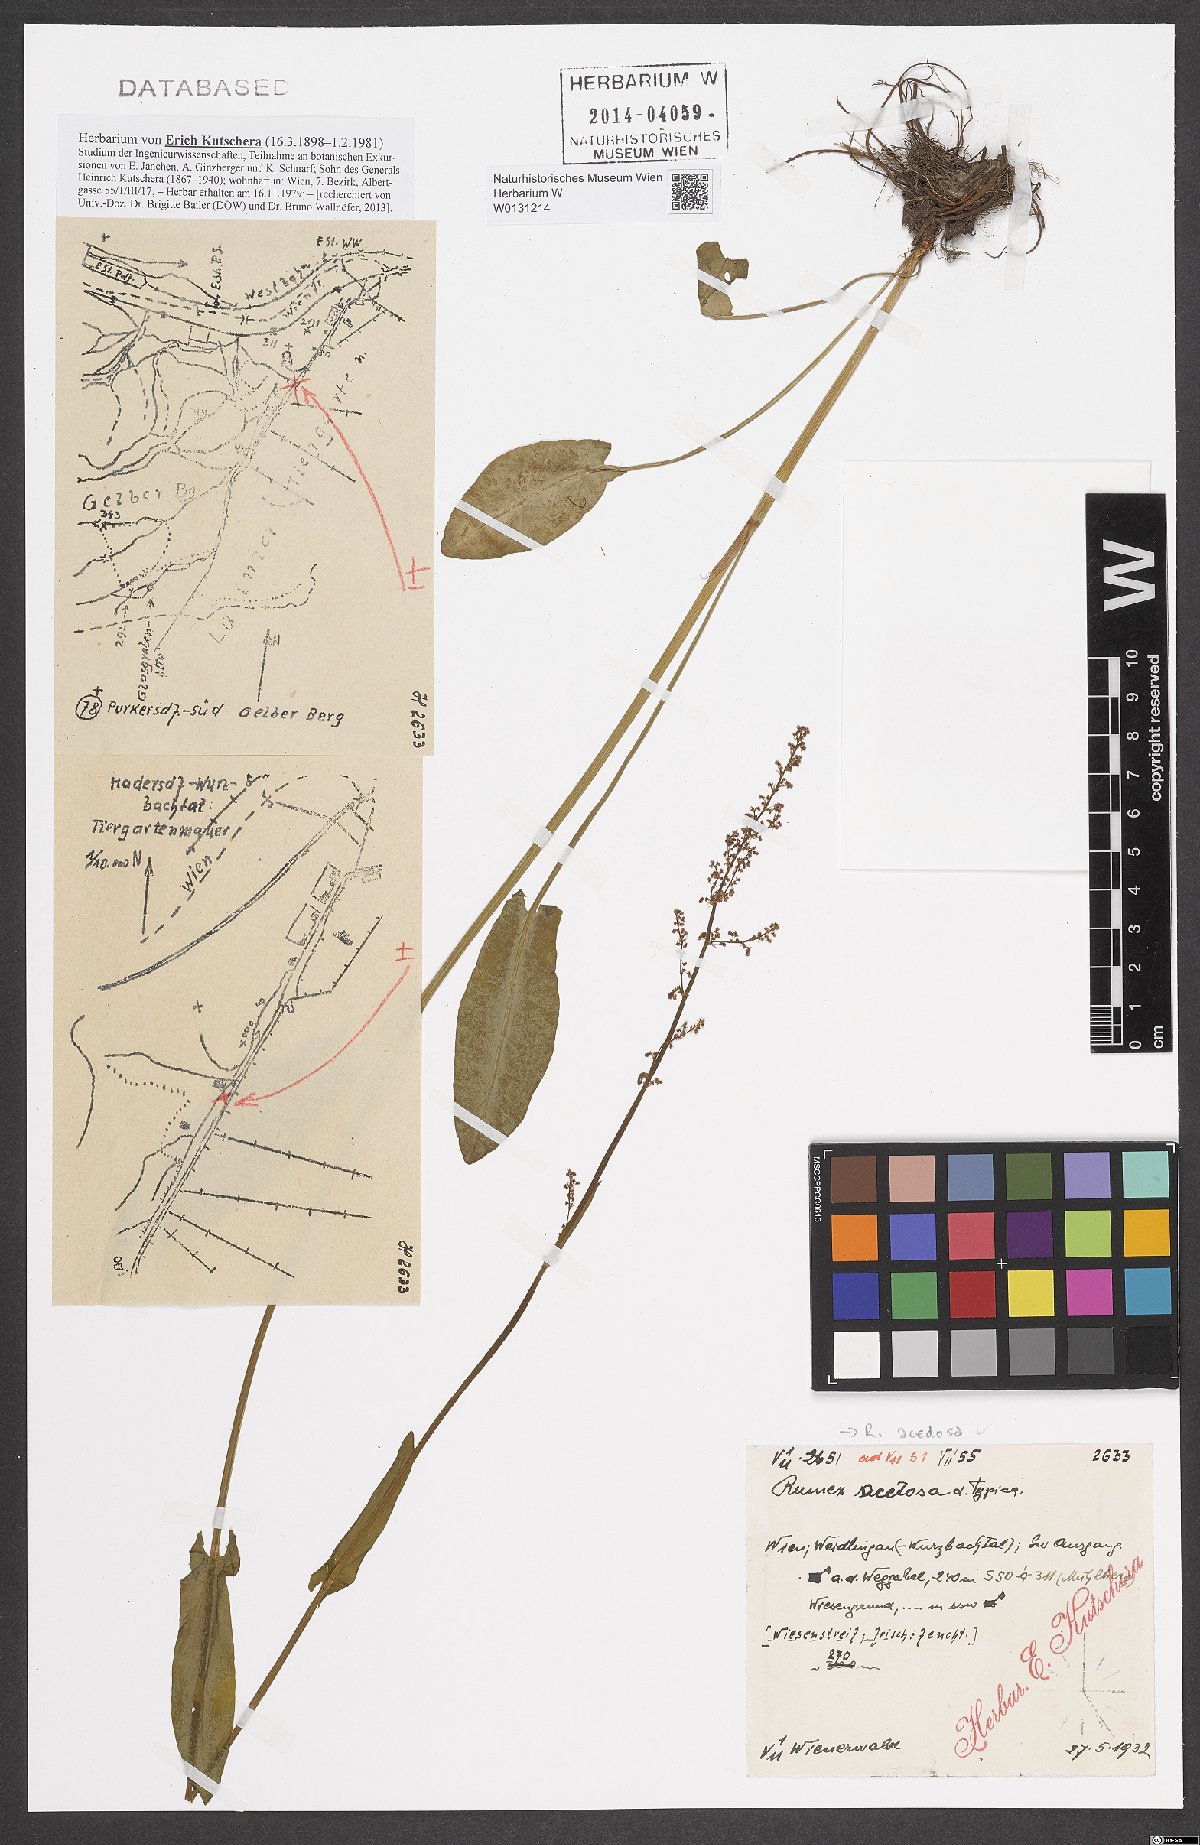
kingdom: Plantae
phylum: Tracheophyta
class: Magnoliopsida
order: Caryophyllales
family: Polygonaceae
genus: Rumex
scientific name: Rumex acetosa
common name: Garden sorrel
